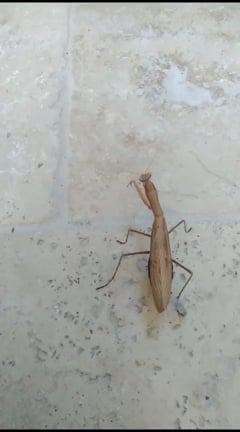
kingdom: Animalia
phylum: Arthropoda
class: Insecta
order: Mantodea
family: Mantidae
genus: Mantis
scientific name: Mantis religiosa
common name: Praying mantis
